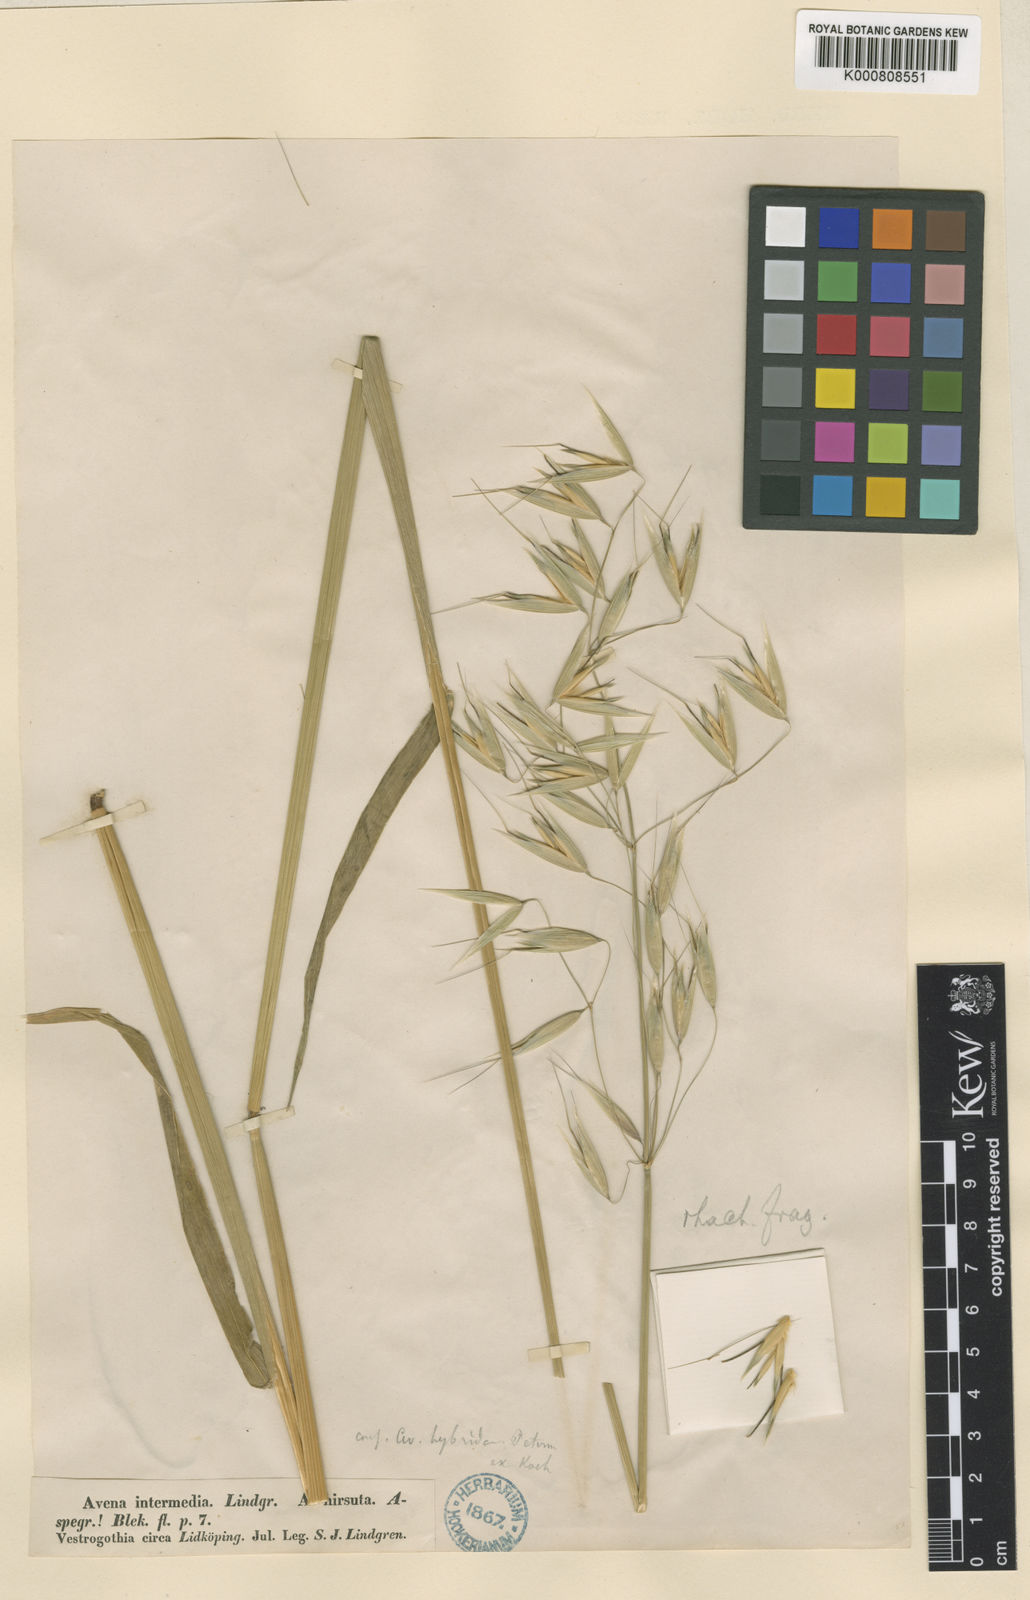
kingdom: Plantae
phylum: Tracheophyta
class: Liliopsida
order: Poales
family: Poaceae
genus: Avena
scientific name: Avena fatua
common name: Wild oat
